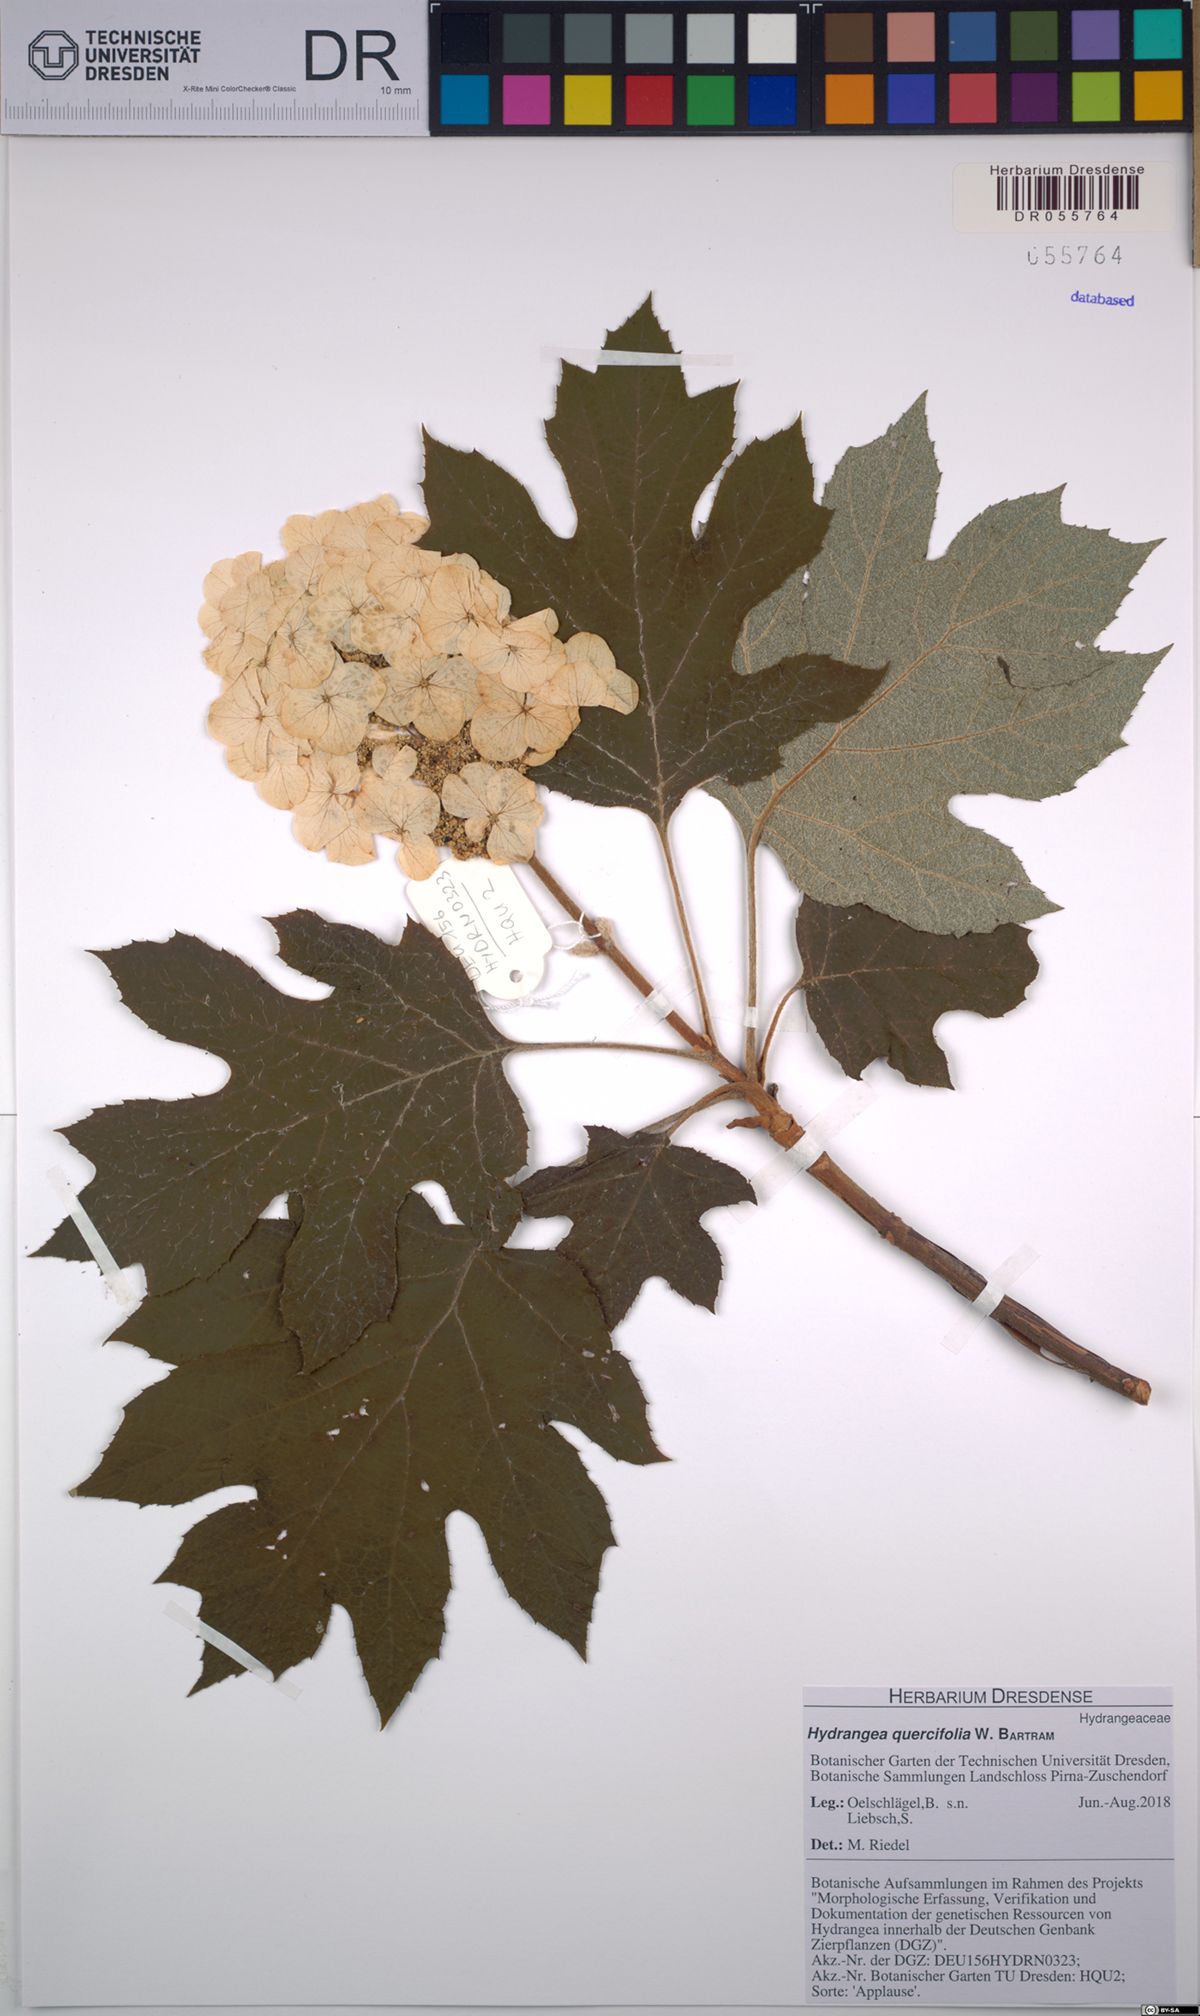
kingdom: Plantae
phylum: Tracheophyta
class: Magnoliopsida
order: Cornales
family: Hydrangeaceae
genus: Hydrangea
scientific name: Hydrangea quercifolia
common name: Oak-leaf hydrangea
